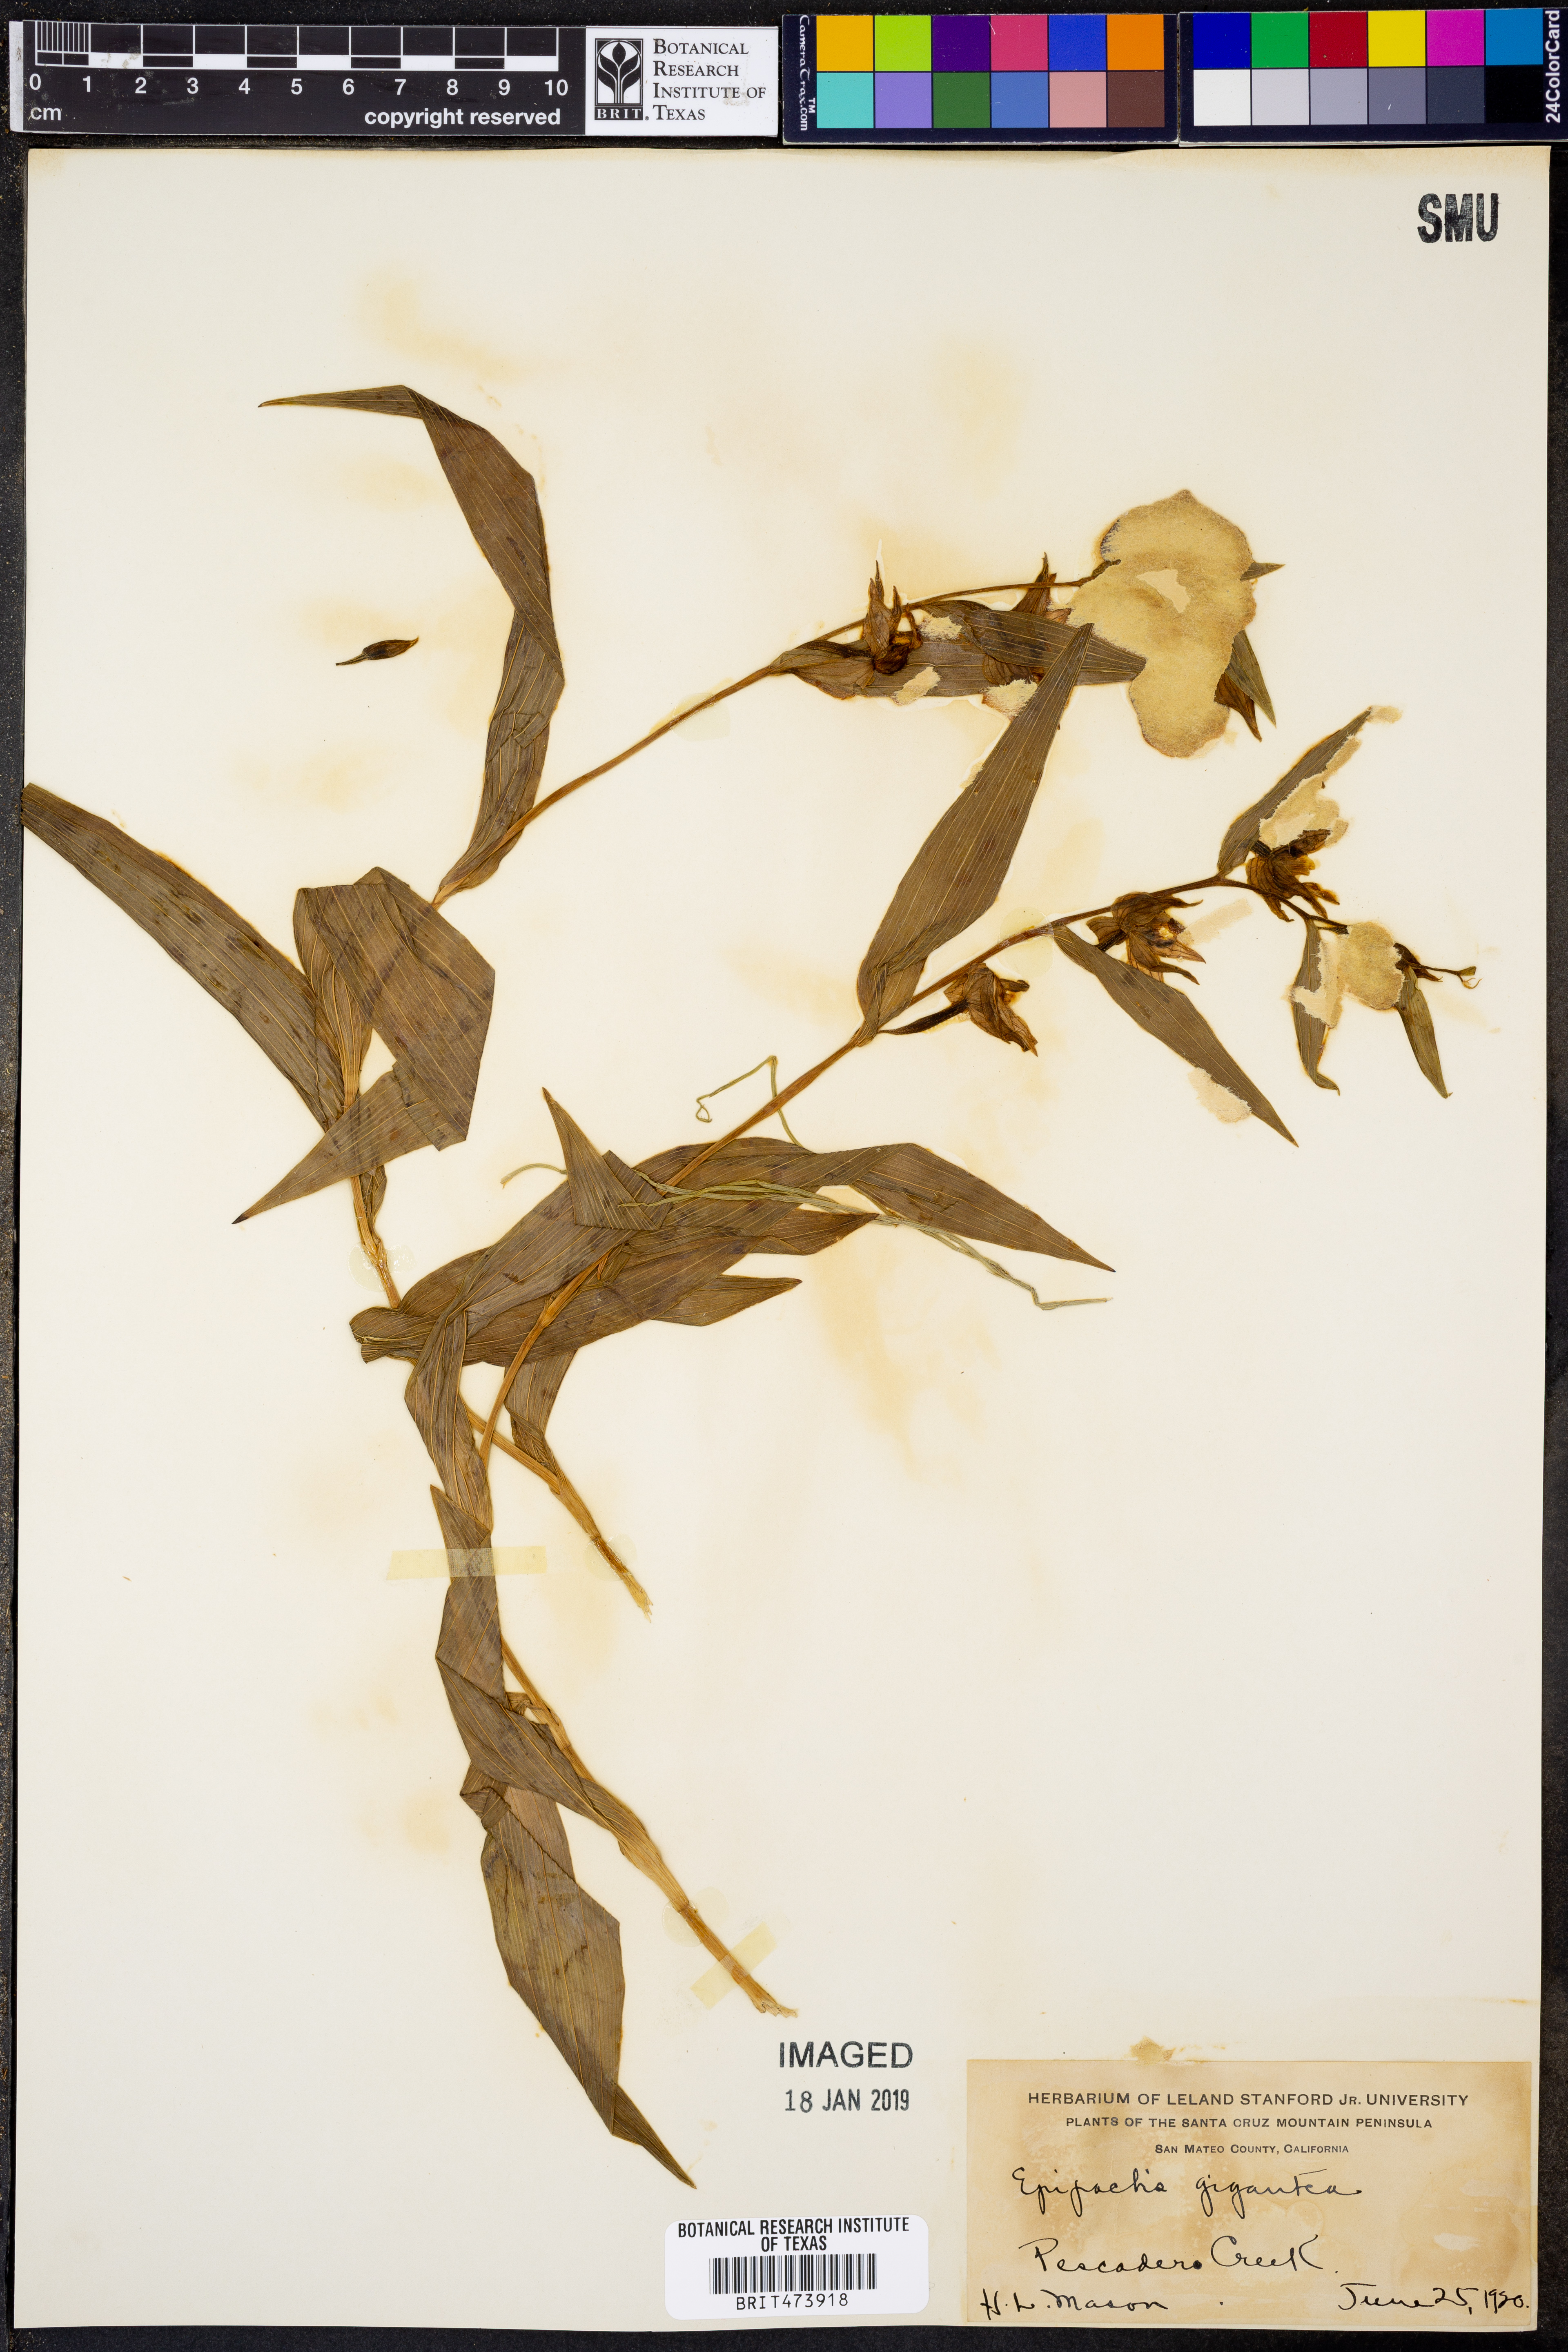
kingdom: Plantae
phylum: Tracheophyta
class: Liliopsida
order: Asparagales
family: Orchidaceae
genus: Epipactis
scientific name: Epipactis gigantea
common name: Chatterbox
